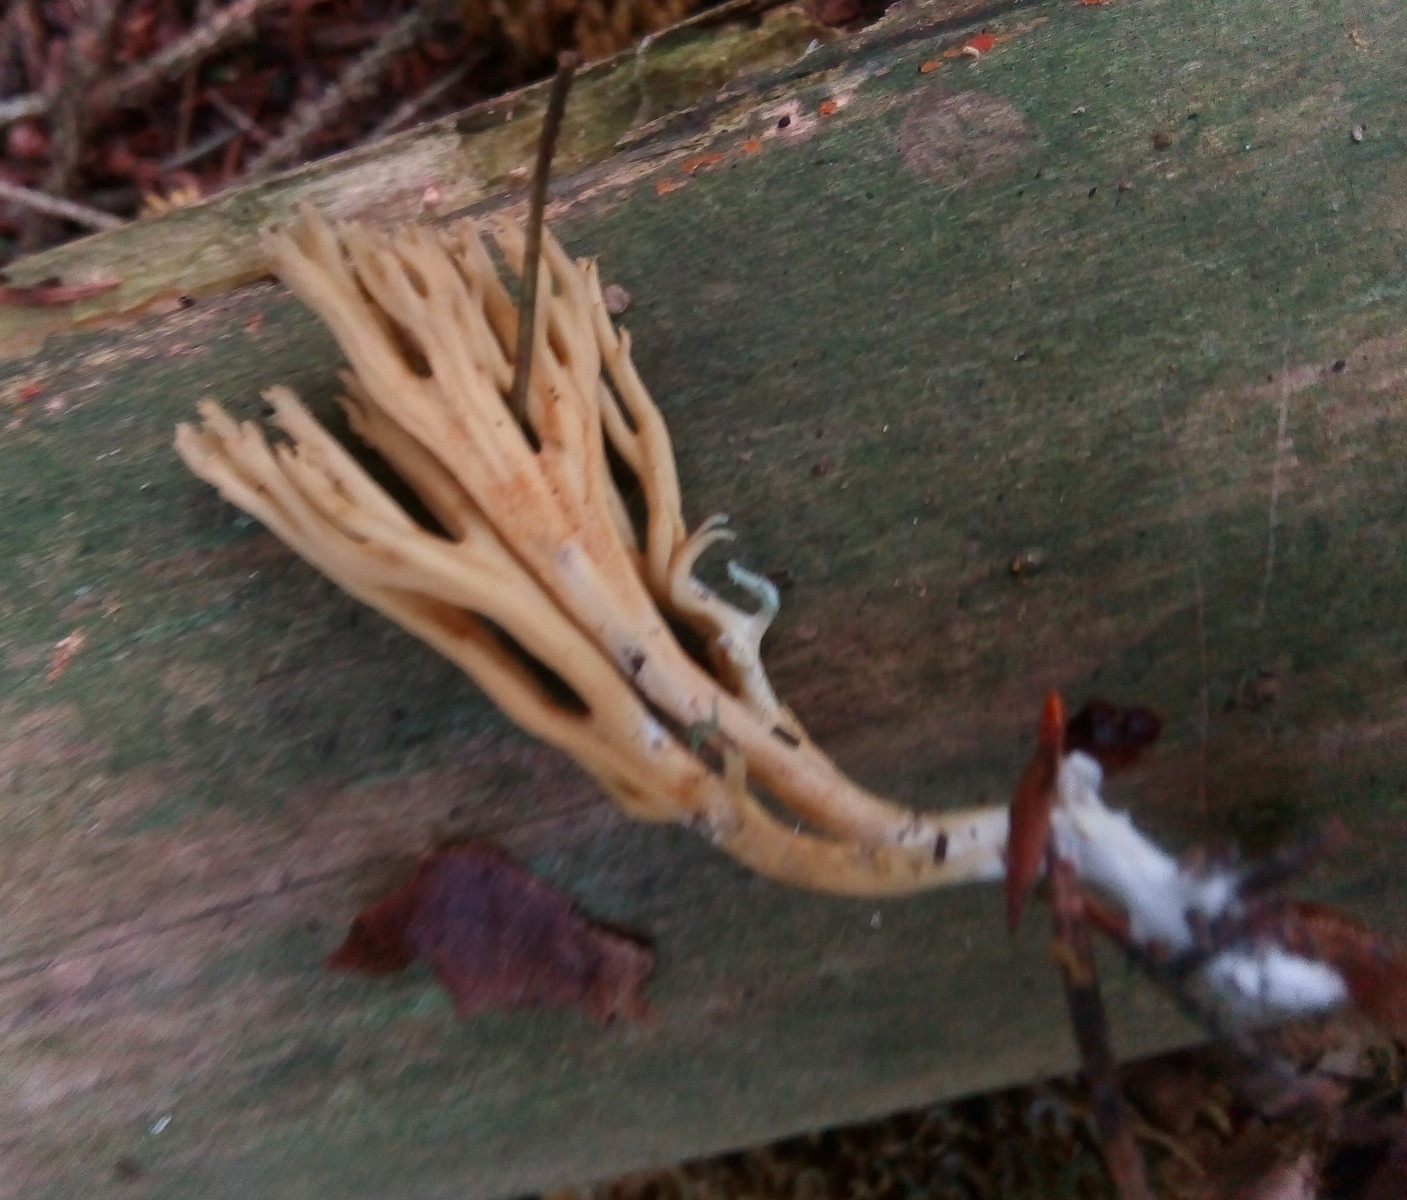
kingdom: Fungi
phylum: Basidiomycota
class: Agaricomycetes
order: Gomphales
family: Gomphaceae
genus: Phaeoclavulina
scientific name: Phaeoclavulina
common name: koralsvamp
